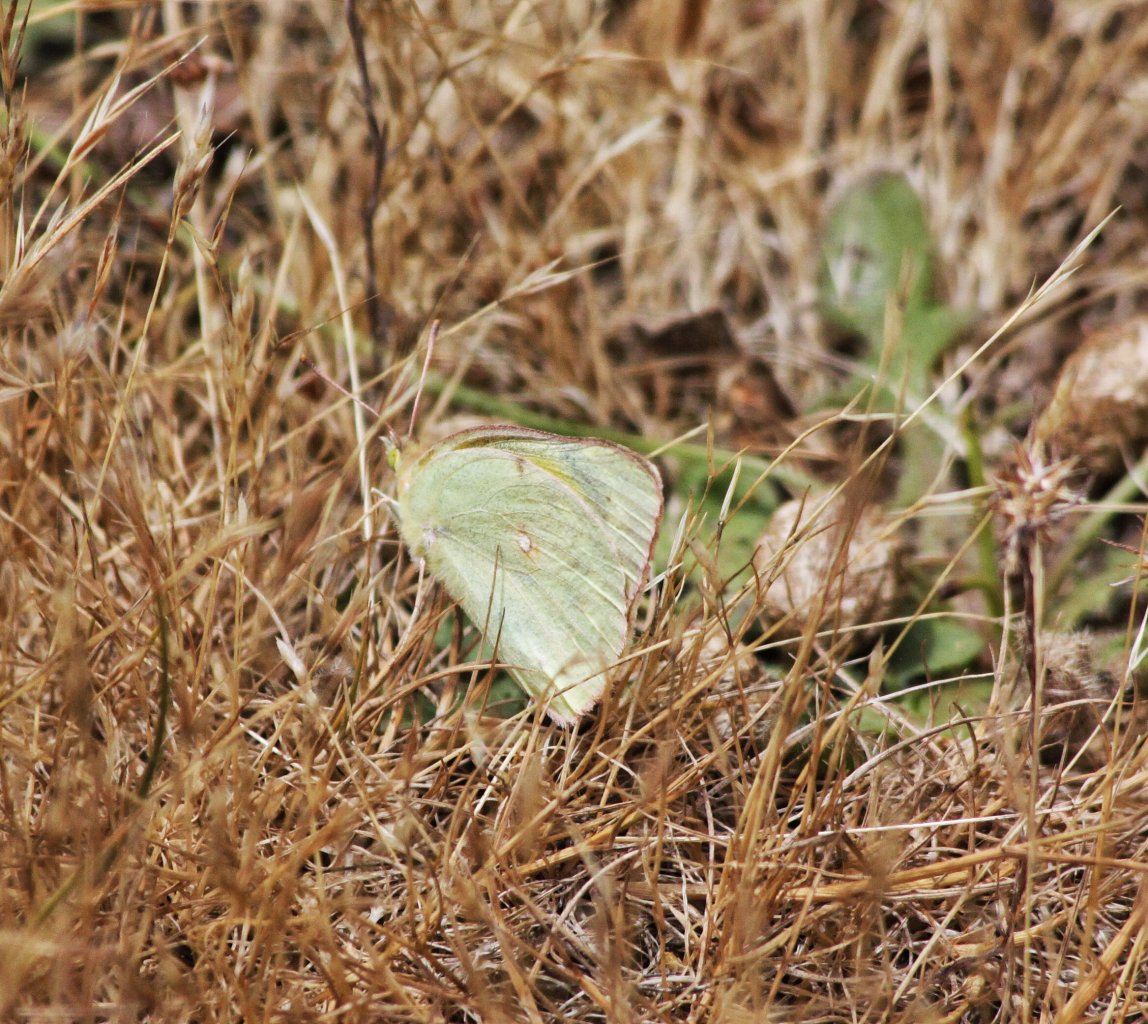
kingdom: Animalia
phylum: Arthropoda
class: Insecta
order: Lepidoptera
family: Pieridae
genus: Colias
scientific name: Colias eurytheme
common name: Orange Sulphur
